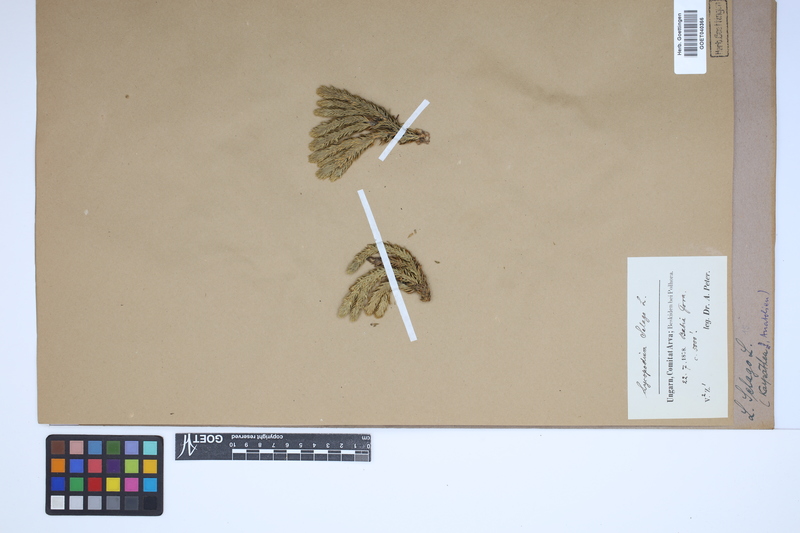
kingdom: Plantae
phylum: Tracheophyta
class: Lycopodiopsida
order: Lycopodiales
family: Lycopodiaceae
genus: Huperzia
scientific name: Huperzia selago
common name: Northern firmoss
